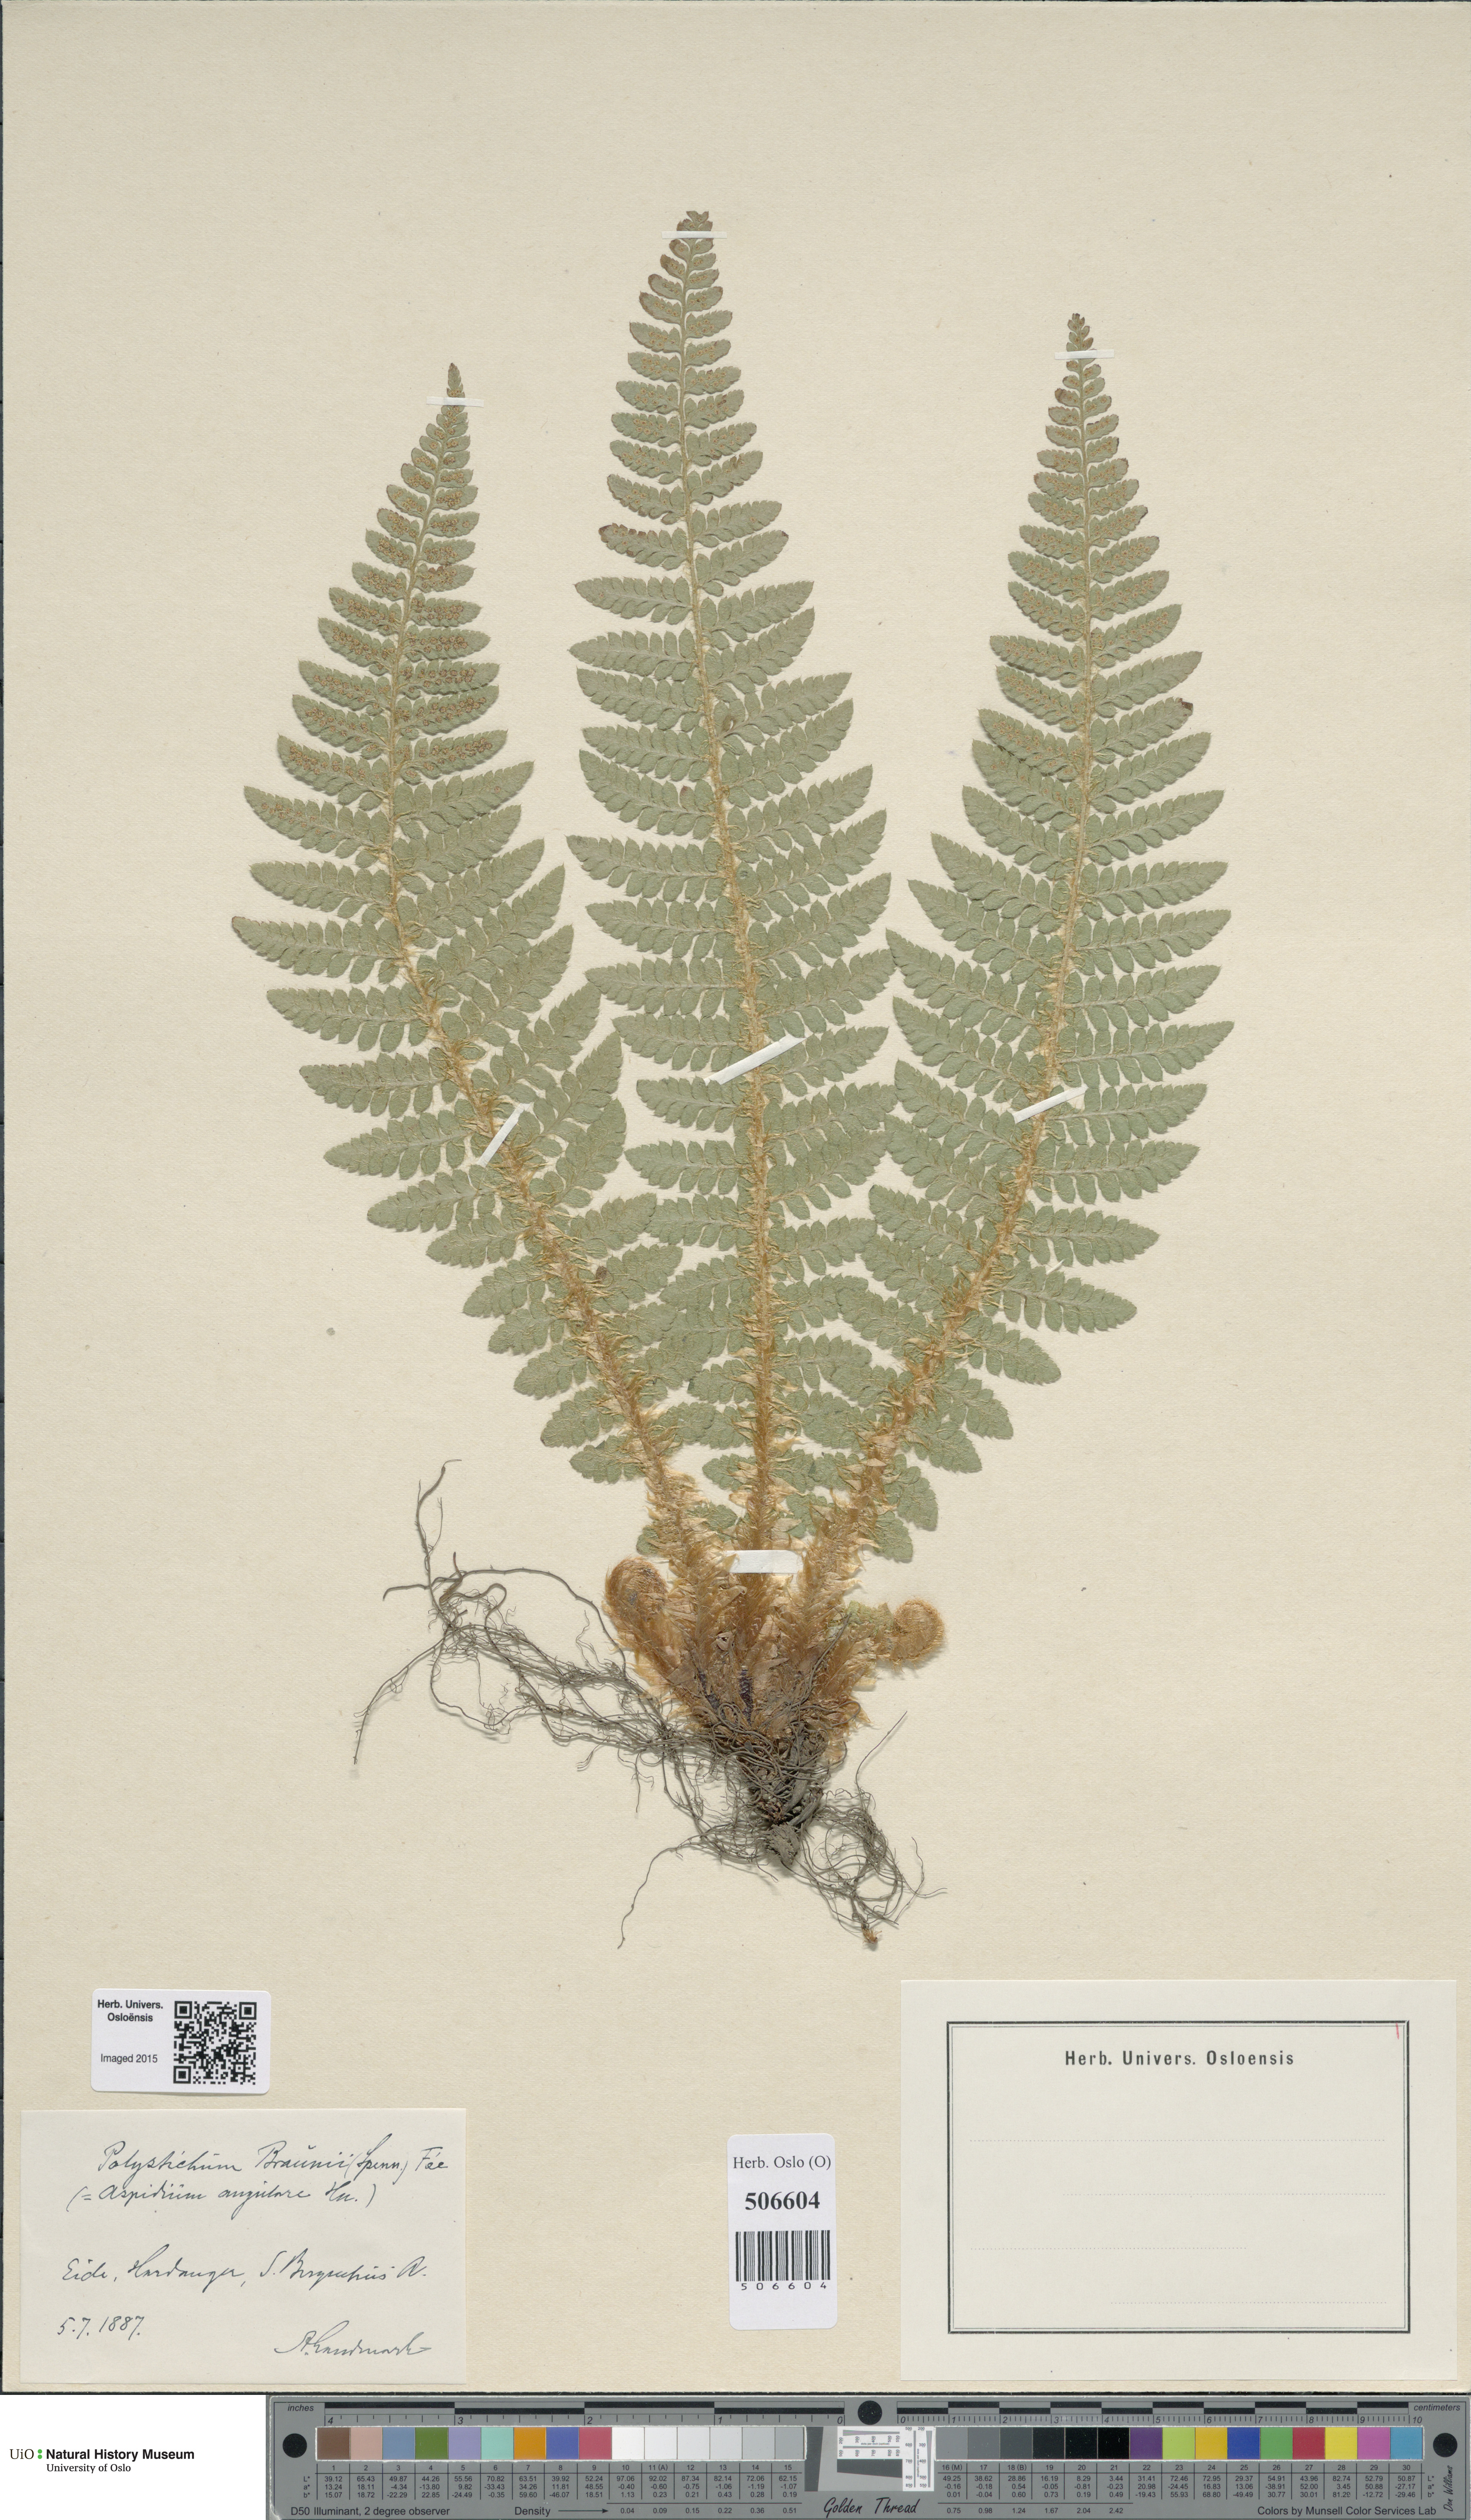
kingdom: Plantae
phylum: Tracheophyta
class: Polypodiopsida
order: Polypodiales
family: Dryopteridaceae
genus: Polystichum
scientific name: Polystichum braunii
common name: Braun's holly fern
